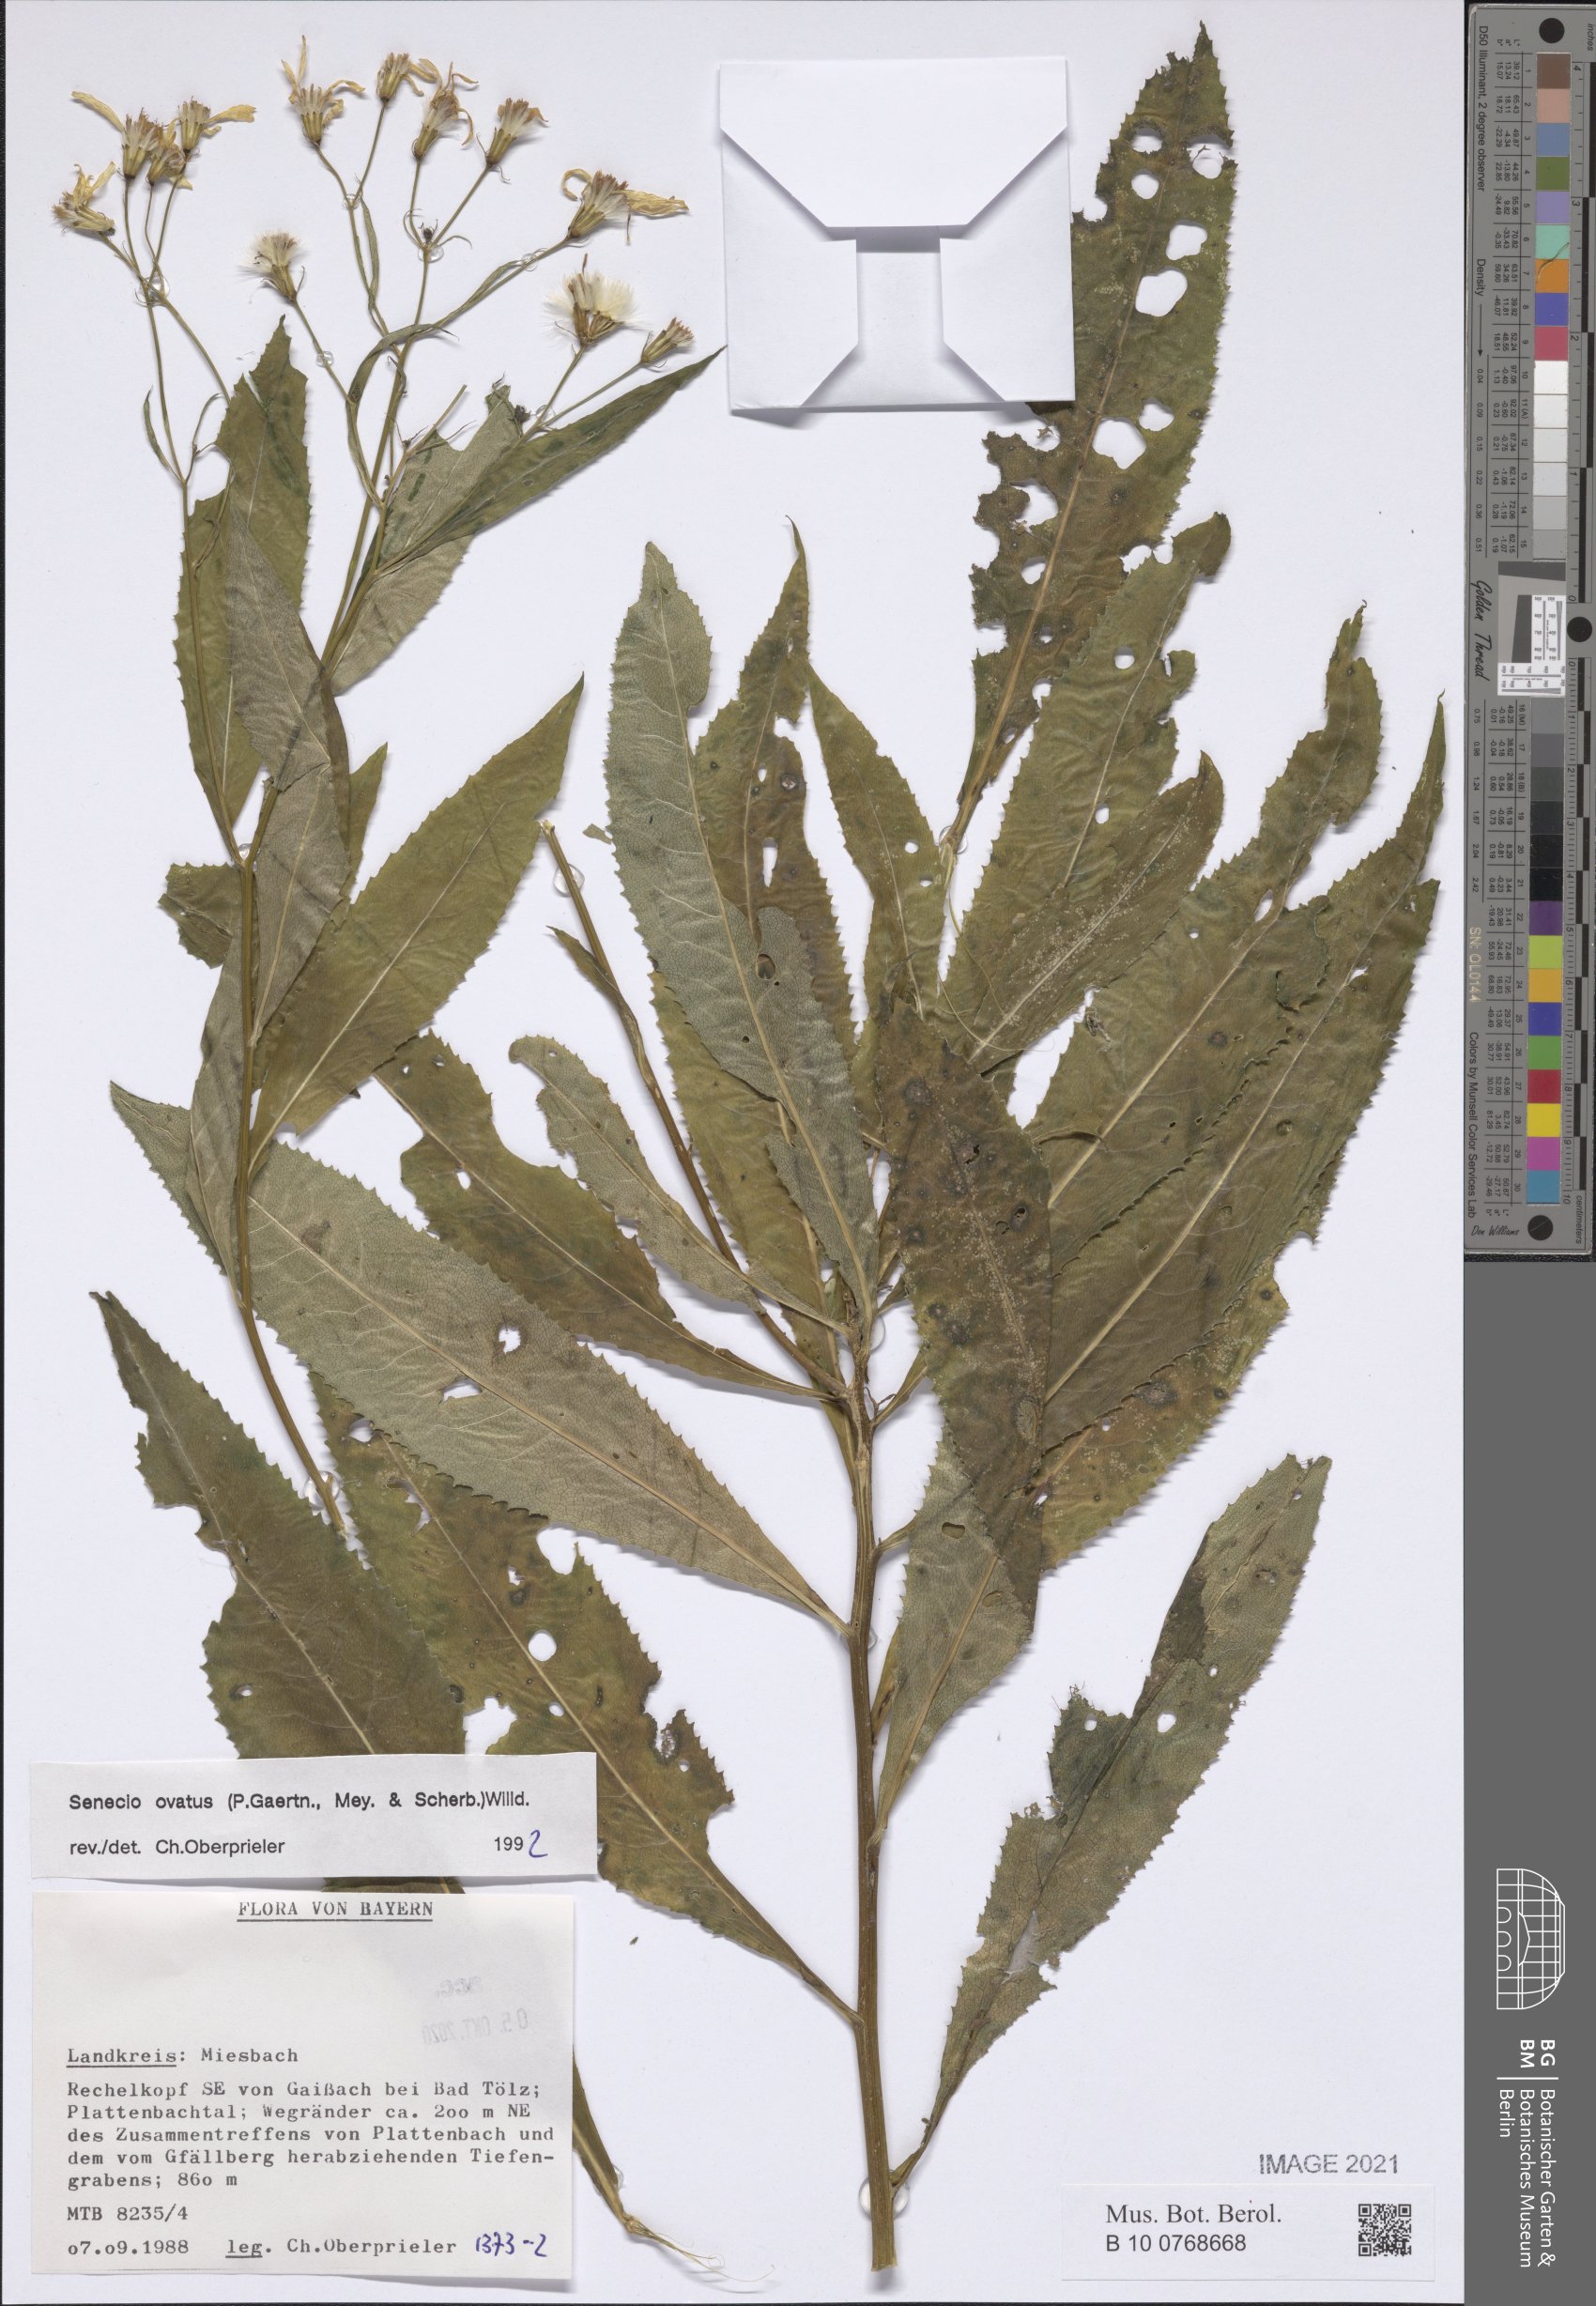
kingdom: Plantae
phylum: Tracheophyta
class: Magnoliopsida
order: Asterales
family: Asteraceae
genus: Senecio
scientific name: Senecio ovatus
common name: Wood ragwort
